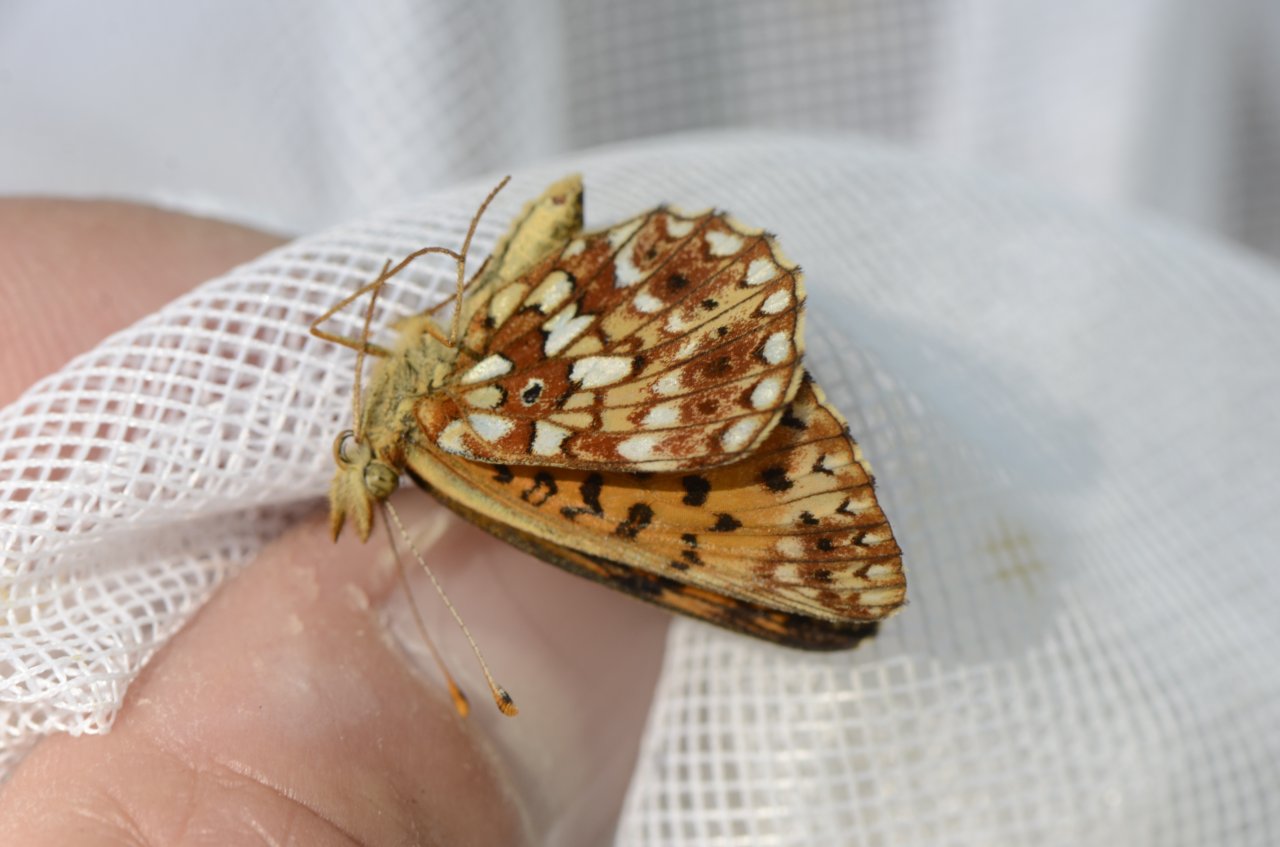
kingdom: Animalia
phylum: Arthropoda
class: Insecta
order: Lepidoptera
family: Nymphalidae
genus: Boloria
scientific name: Boloria selene
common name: Silver-bordered Fritillary
